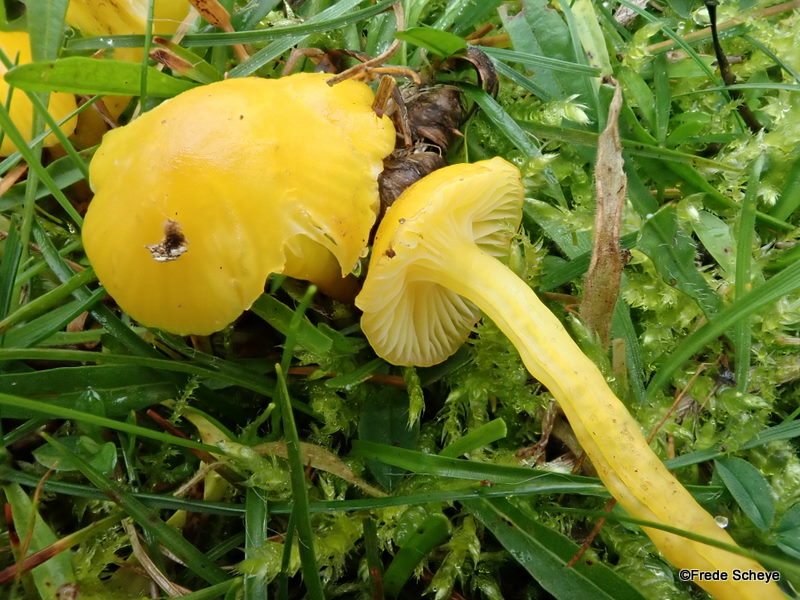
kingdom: Fungi
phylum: Basidiomycota
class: Agaricomycetes
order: Agaricales
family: Hygrophoraceae
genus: Hygrocybe
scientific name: Hygrocybe ceracea
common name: voksgul vokshat
